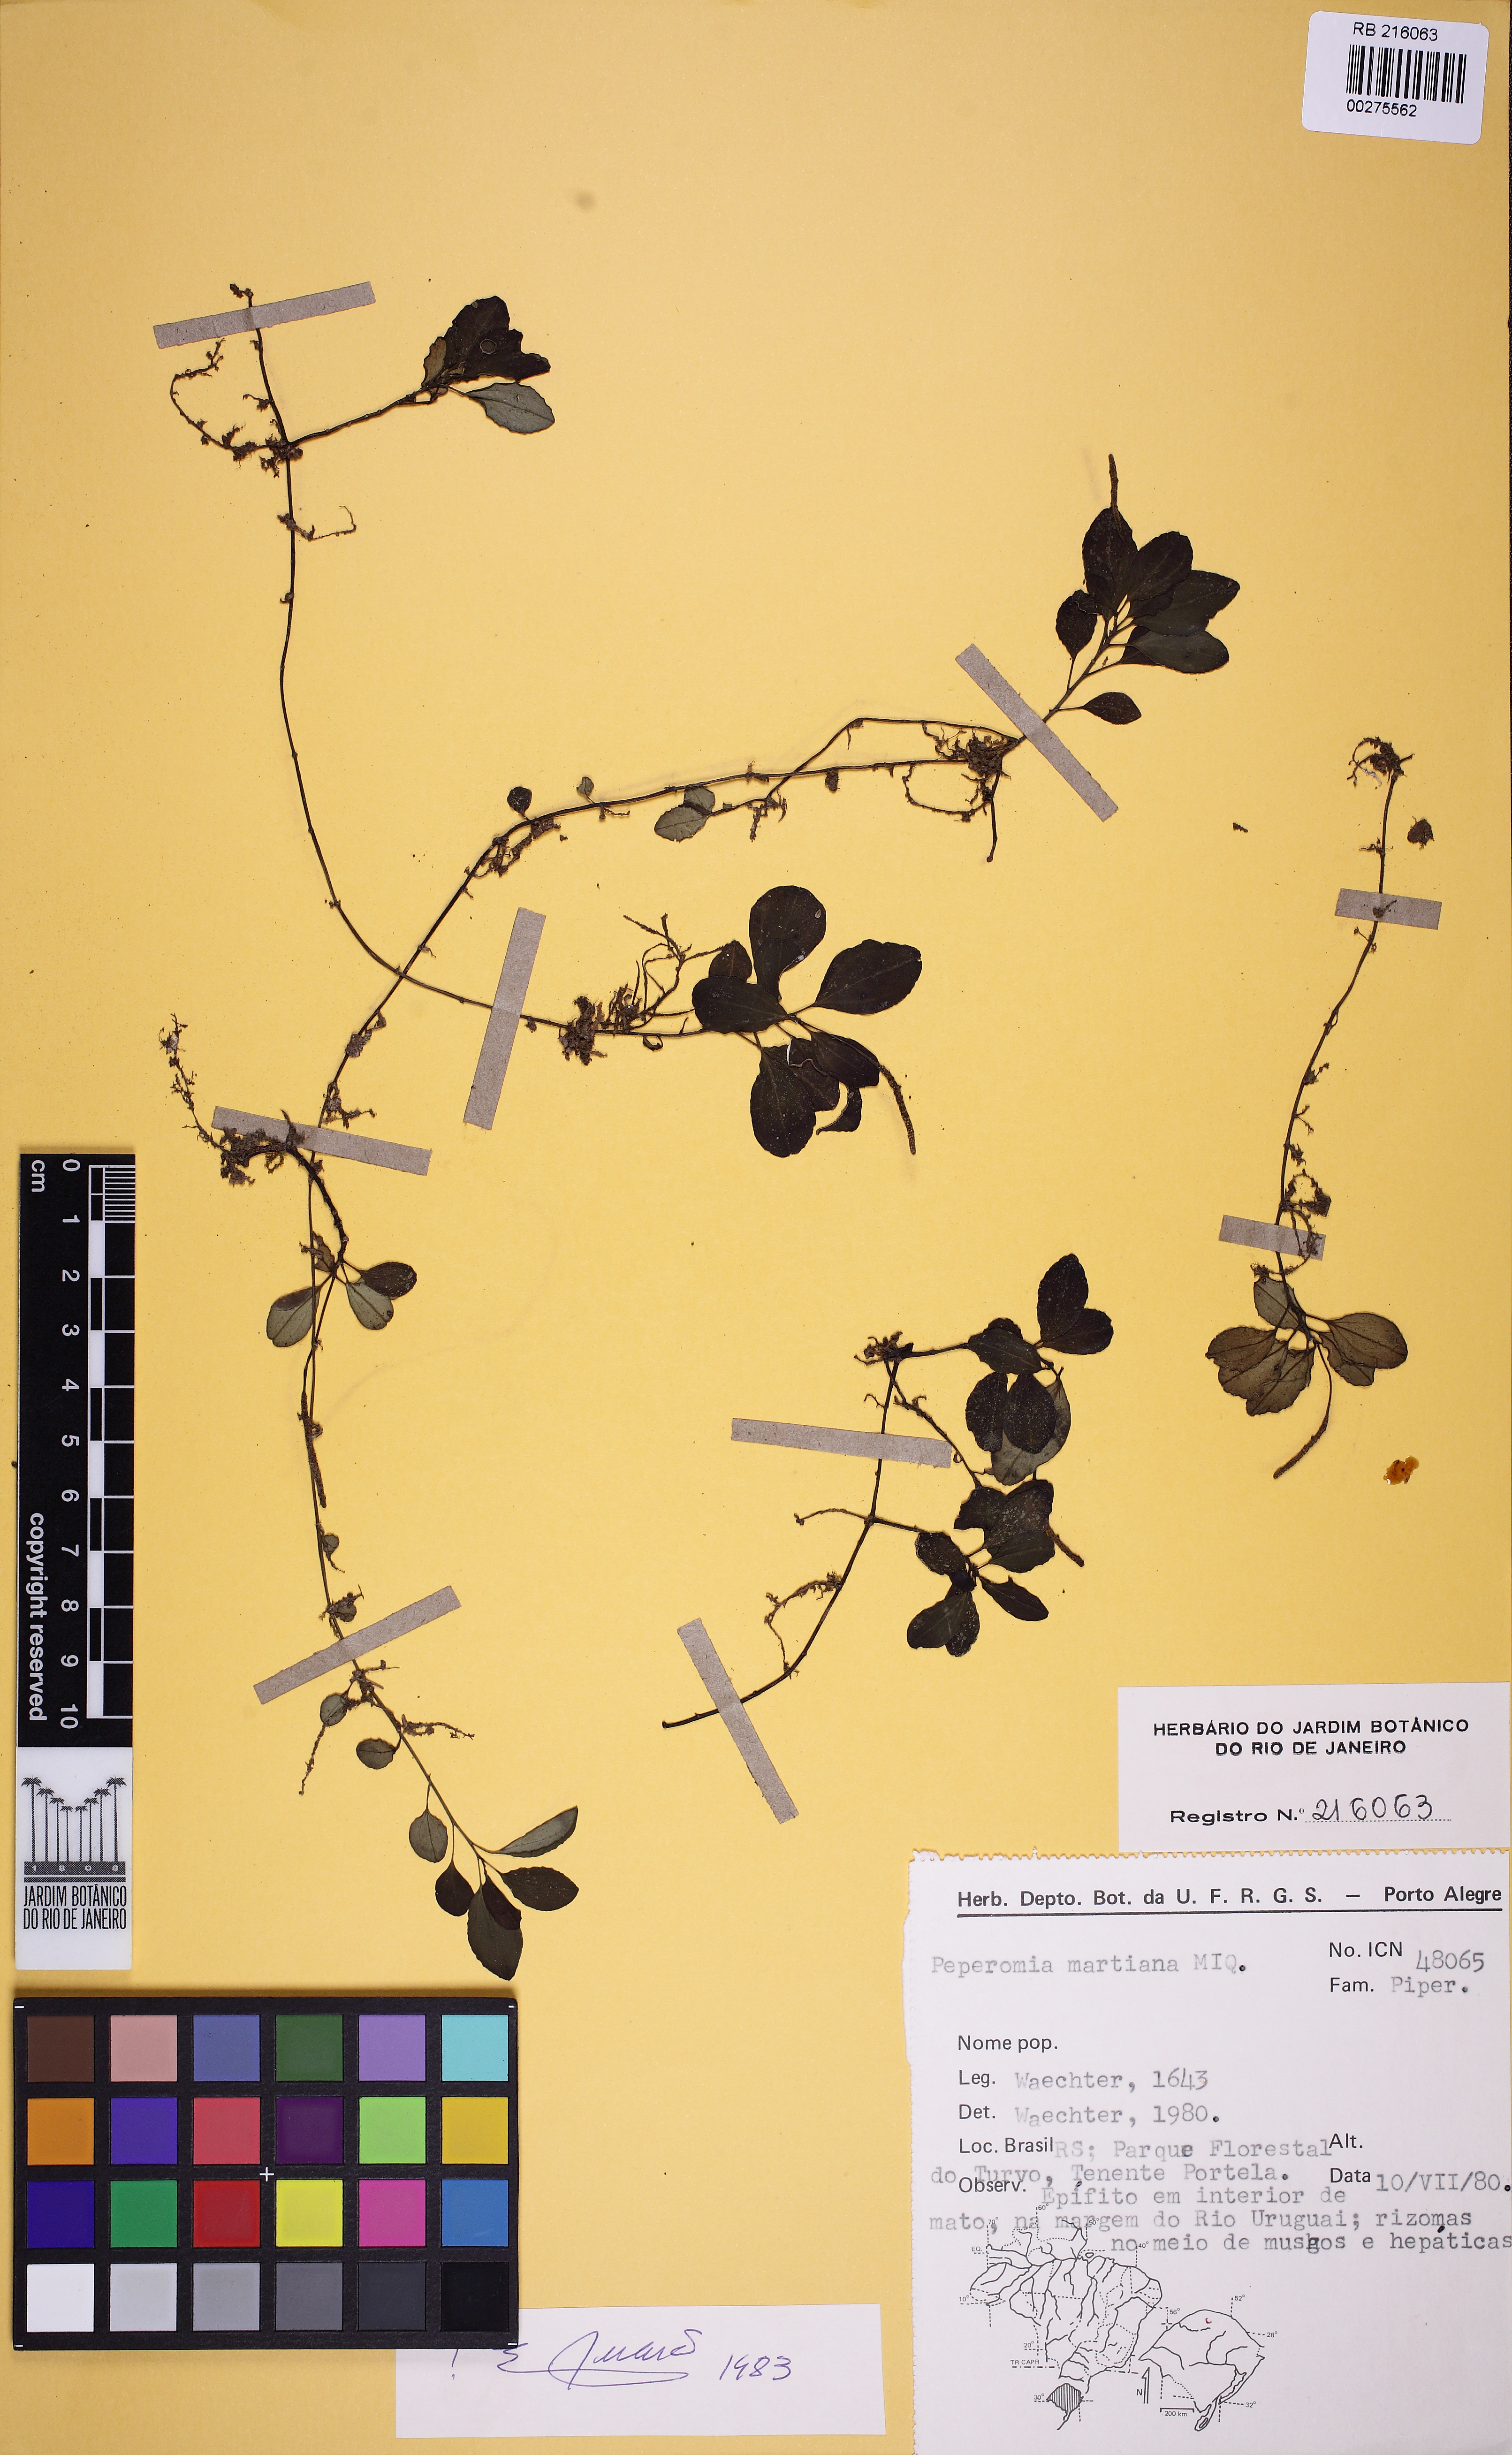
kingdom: Plantae
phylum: Tracheophyta
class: Magnoliopsida
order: Piperales
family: Piperaceae
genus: Peperomia
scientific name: Peperomia martiana
